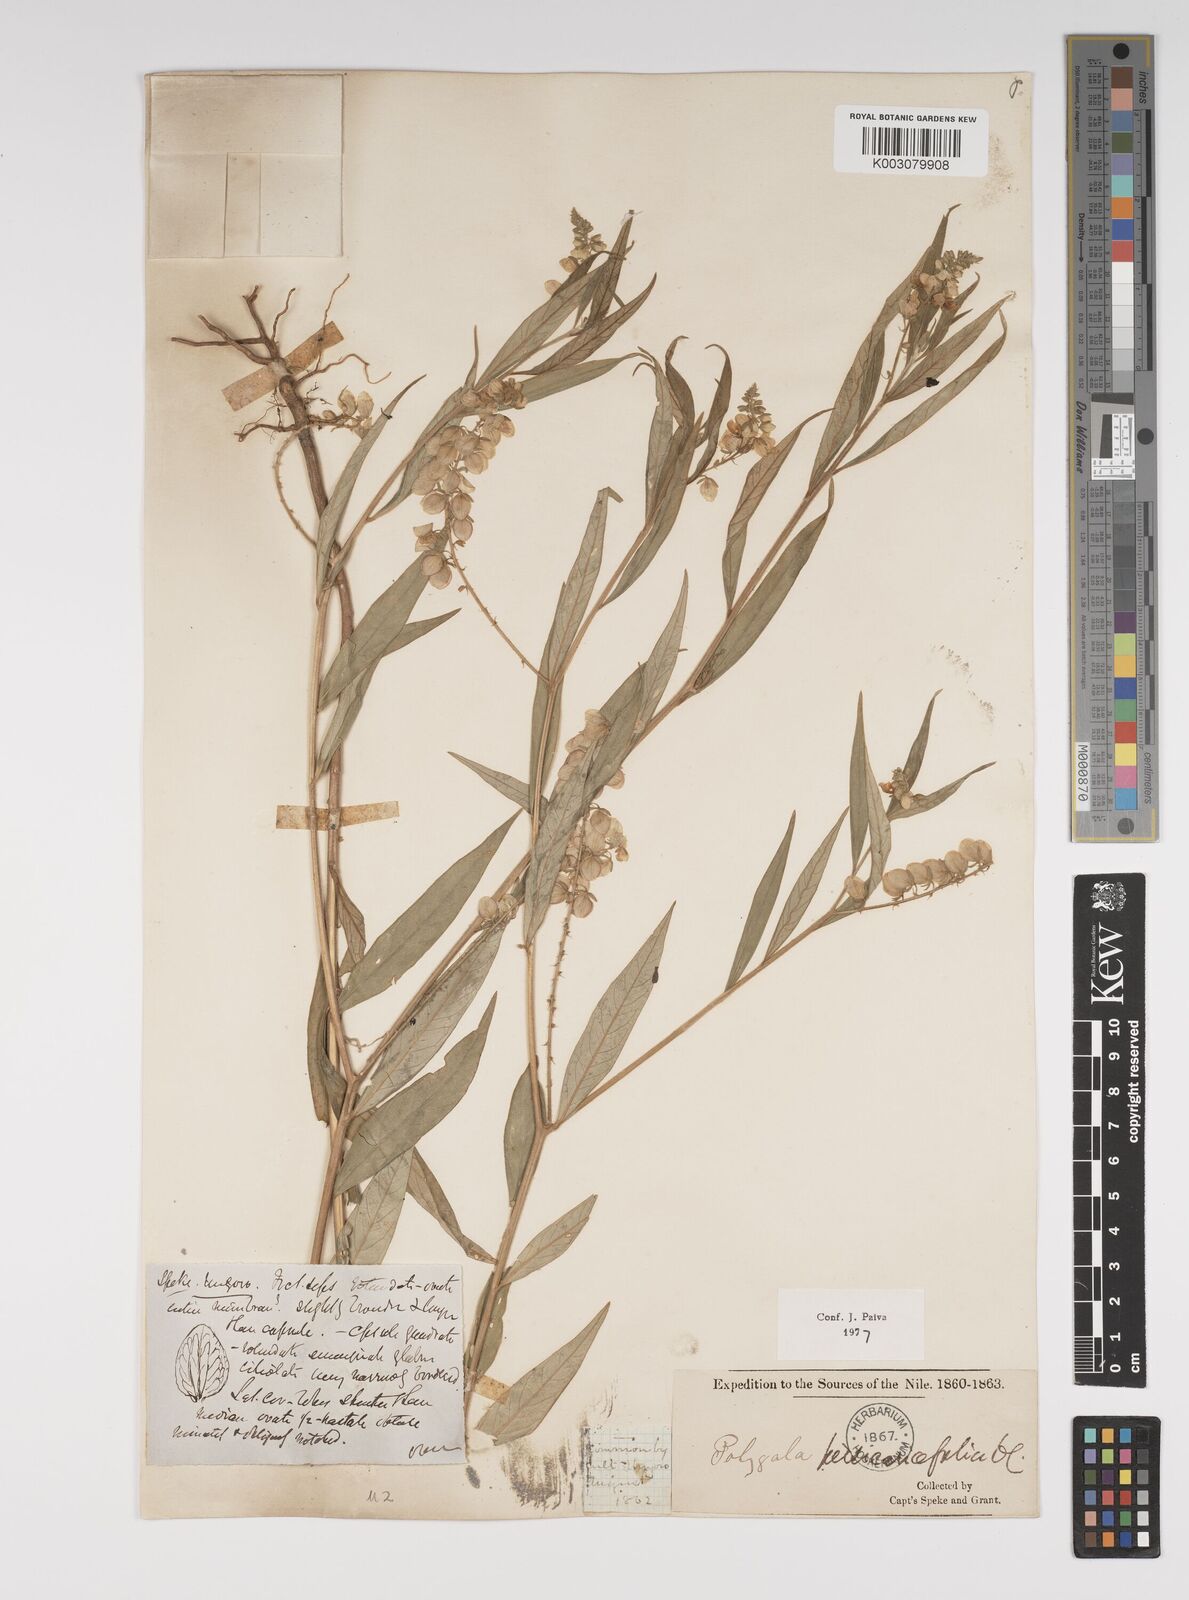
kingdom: Plantae
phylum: Tracheophyta
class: Magnoliopsida
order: Fabales
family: Polygalaceae
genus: Polygala
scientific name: Polygala persicariifolia
